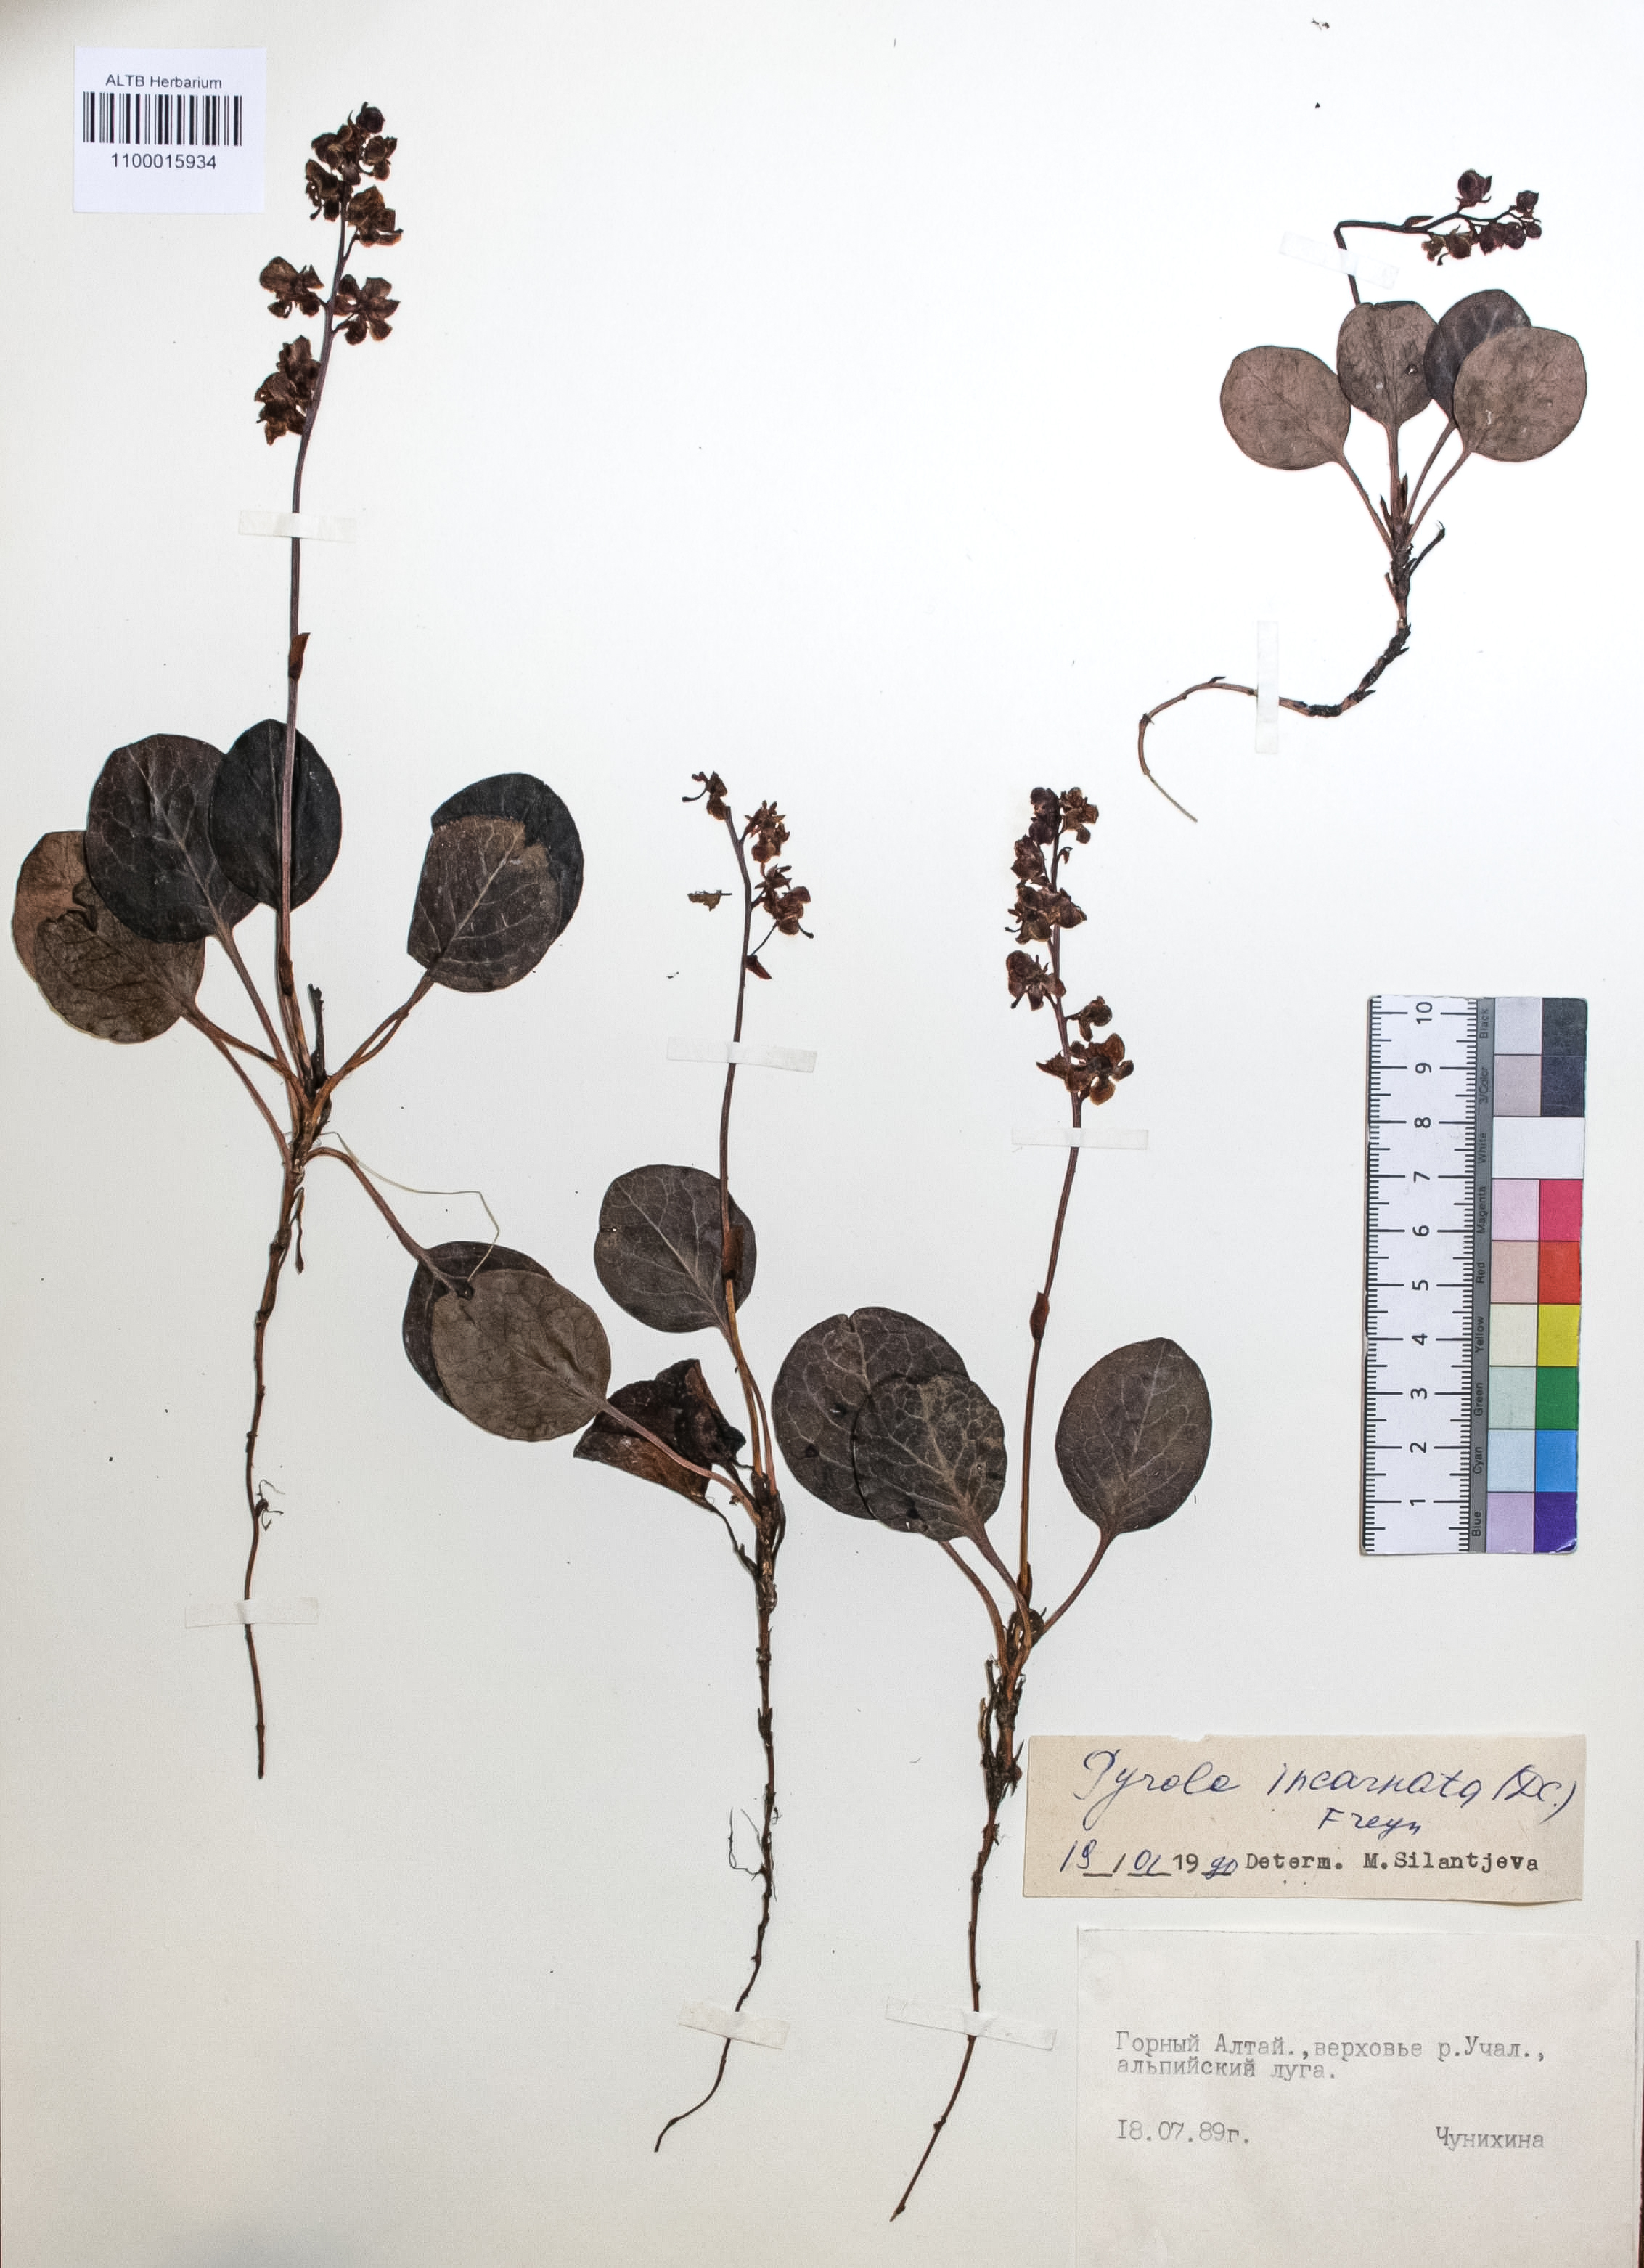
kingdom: Plantae
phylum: Tracheophyta
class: Magnoliopsida
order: Ericales
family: Ericaceae
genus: Pyrola
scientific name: Pyrola asarifolia
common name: Bog wintergreen
